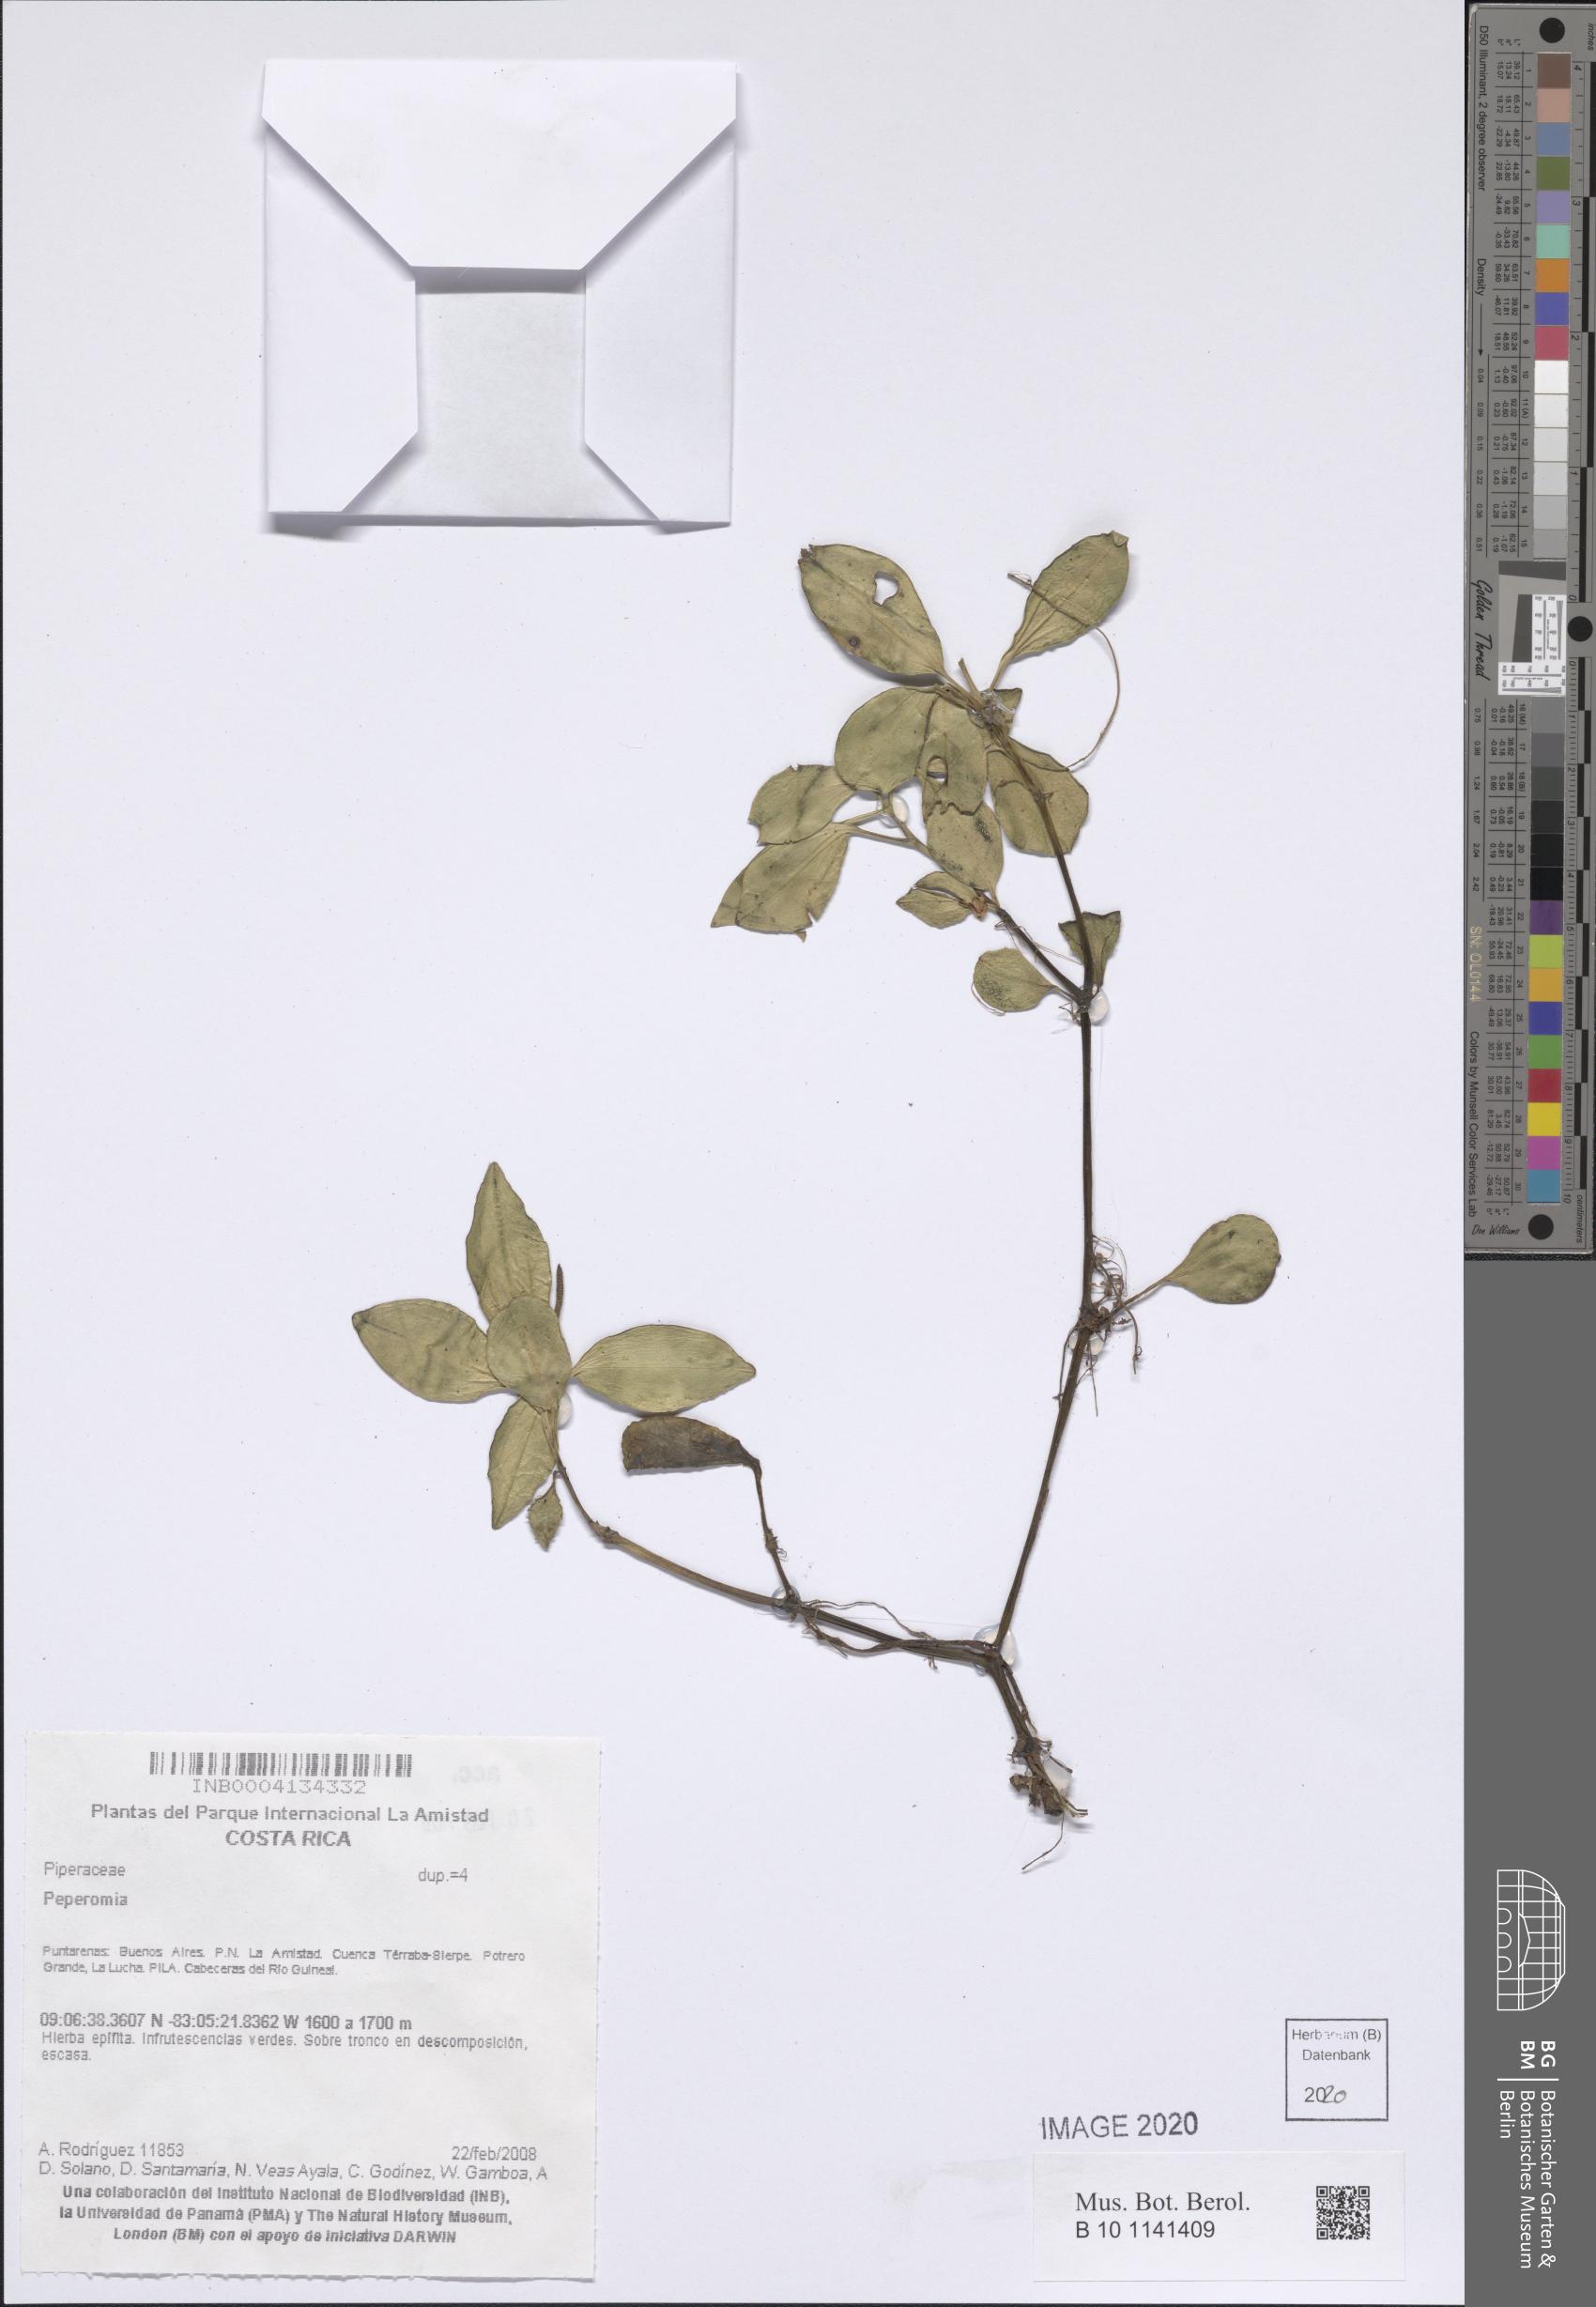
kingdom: Plantae
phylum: Tracheophyta
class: Magnoliopsida
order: Piperales
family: Piperaceae
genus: Peperomia
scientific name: Peperomia
